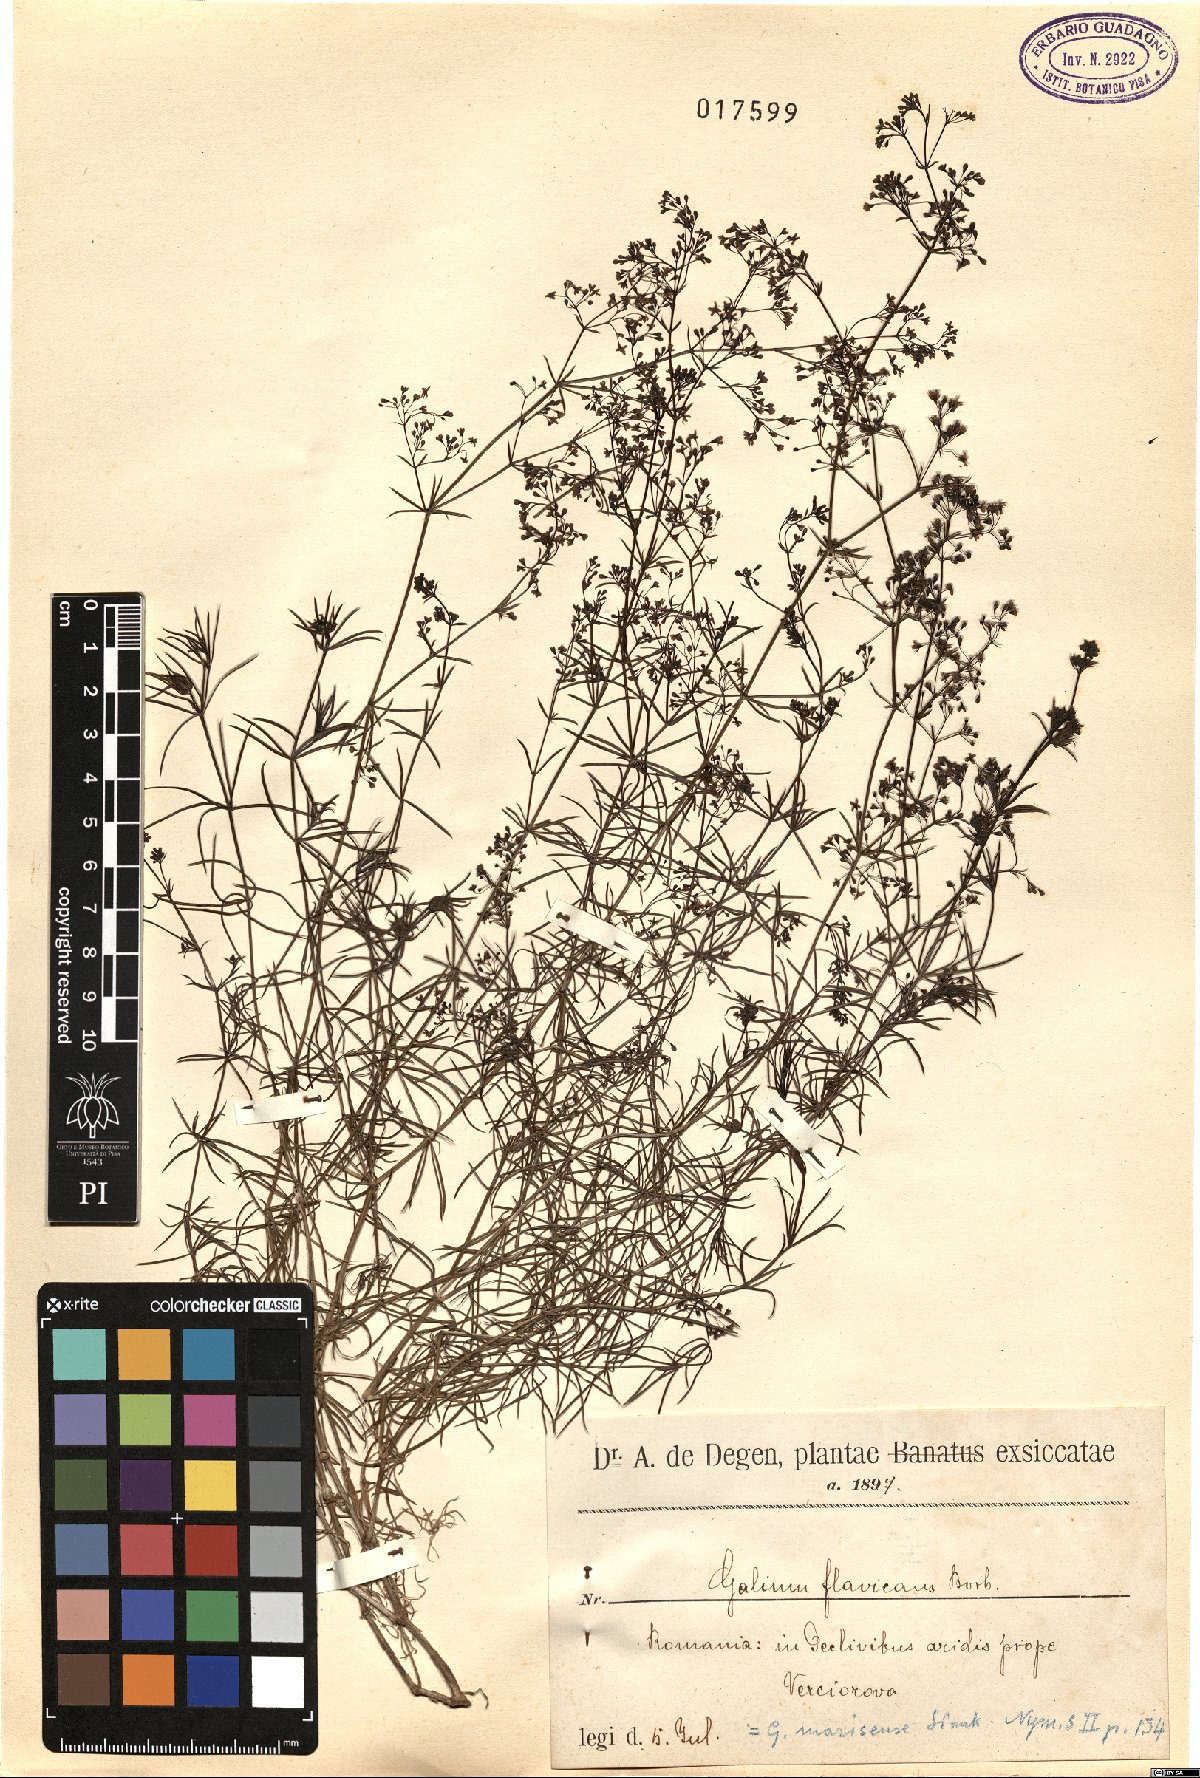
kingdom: Plantae
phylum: Tracheophyta
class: Magnoliopsida
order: Gentianales
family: Rubiaceae
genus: Galium
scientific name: Galium flavescens
